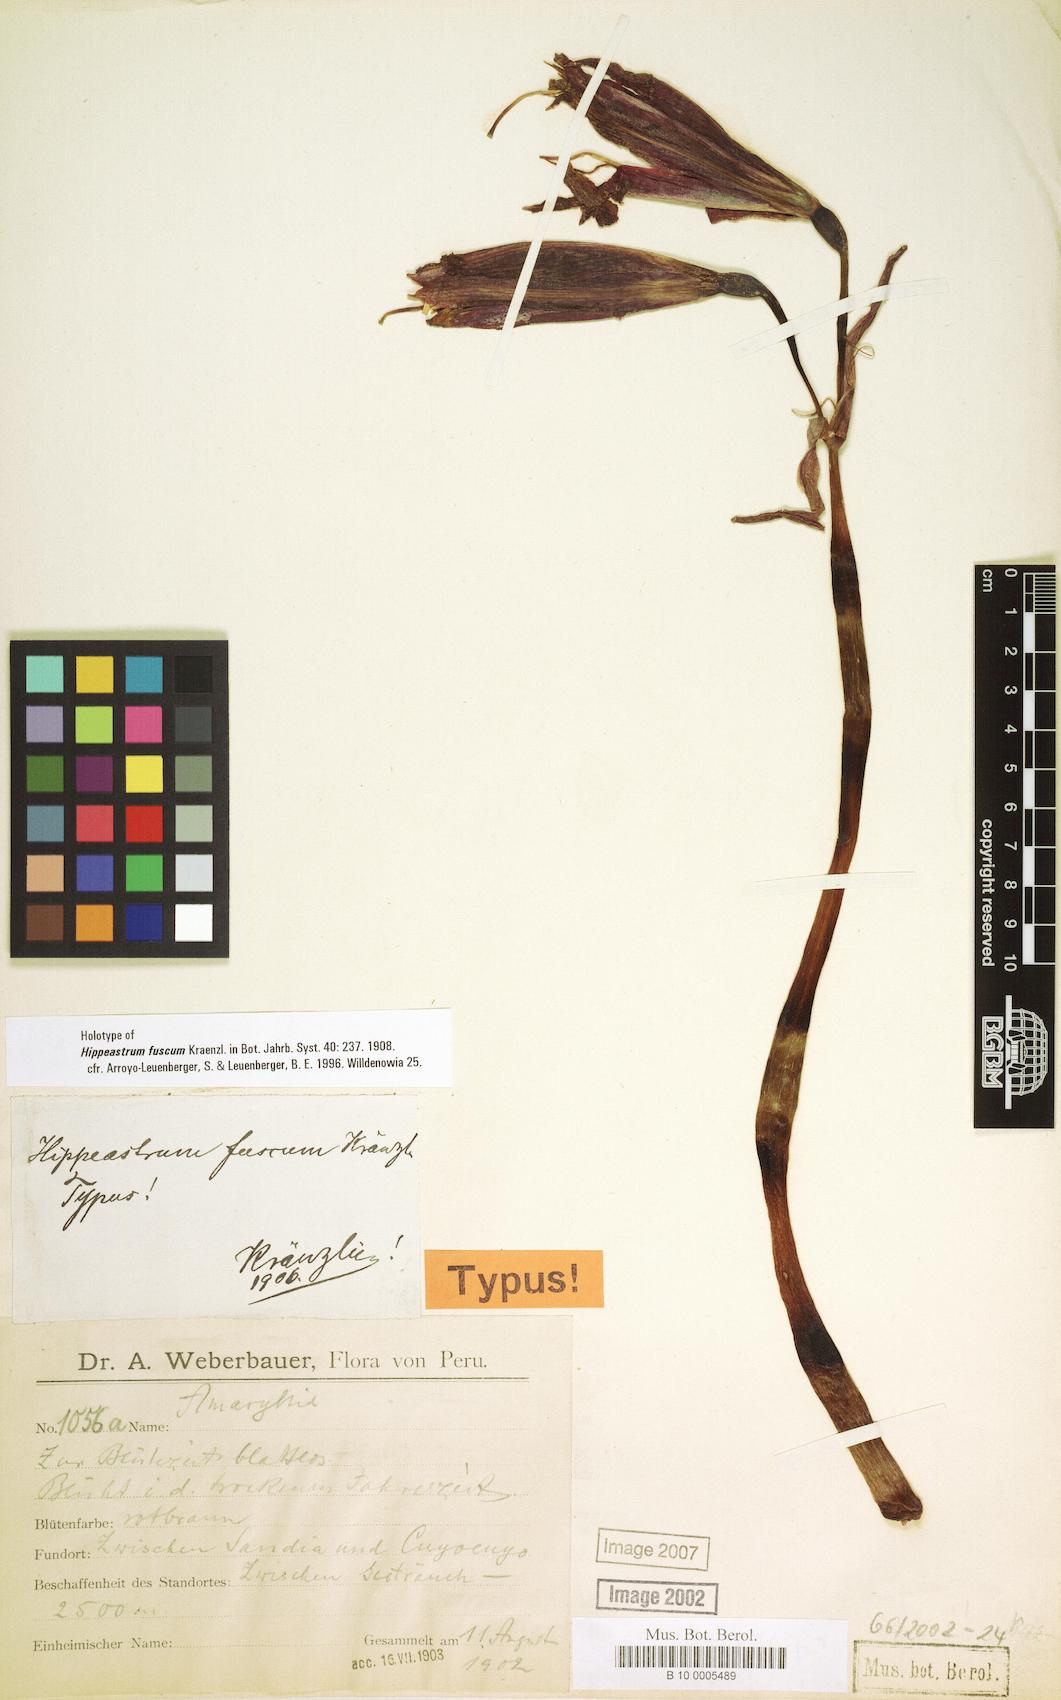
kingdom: Plantae
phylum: Tracheophyta
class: Liliopsida
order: Asparagales
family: Amaryllidaceae
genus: Hippeastrum
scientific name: Hippeastrum fuscum
